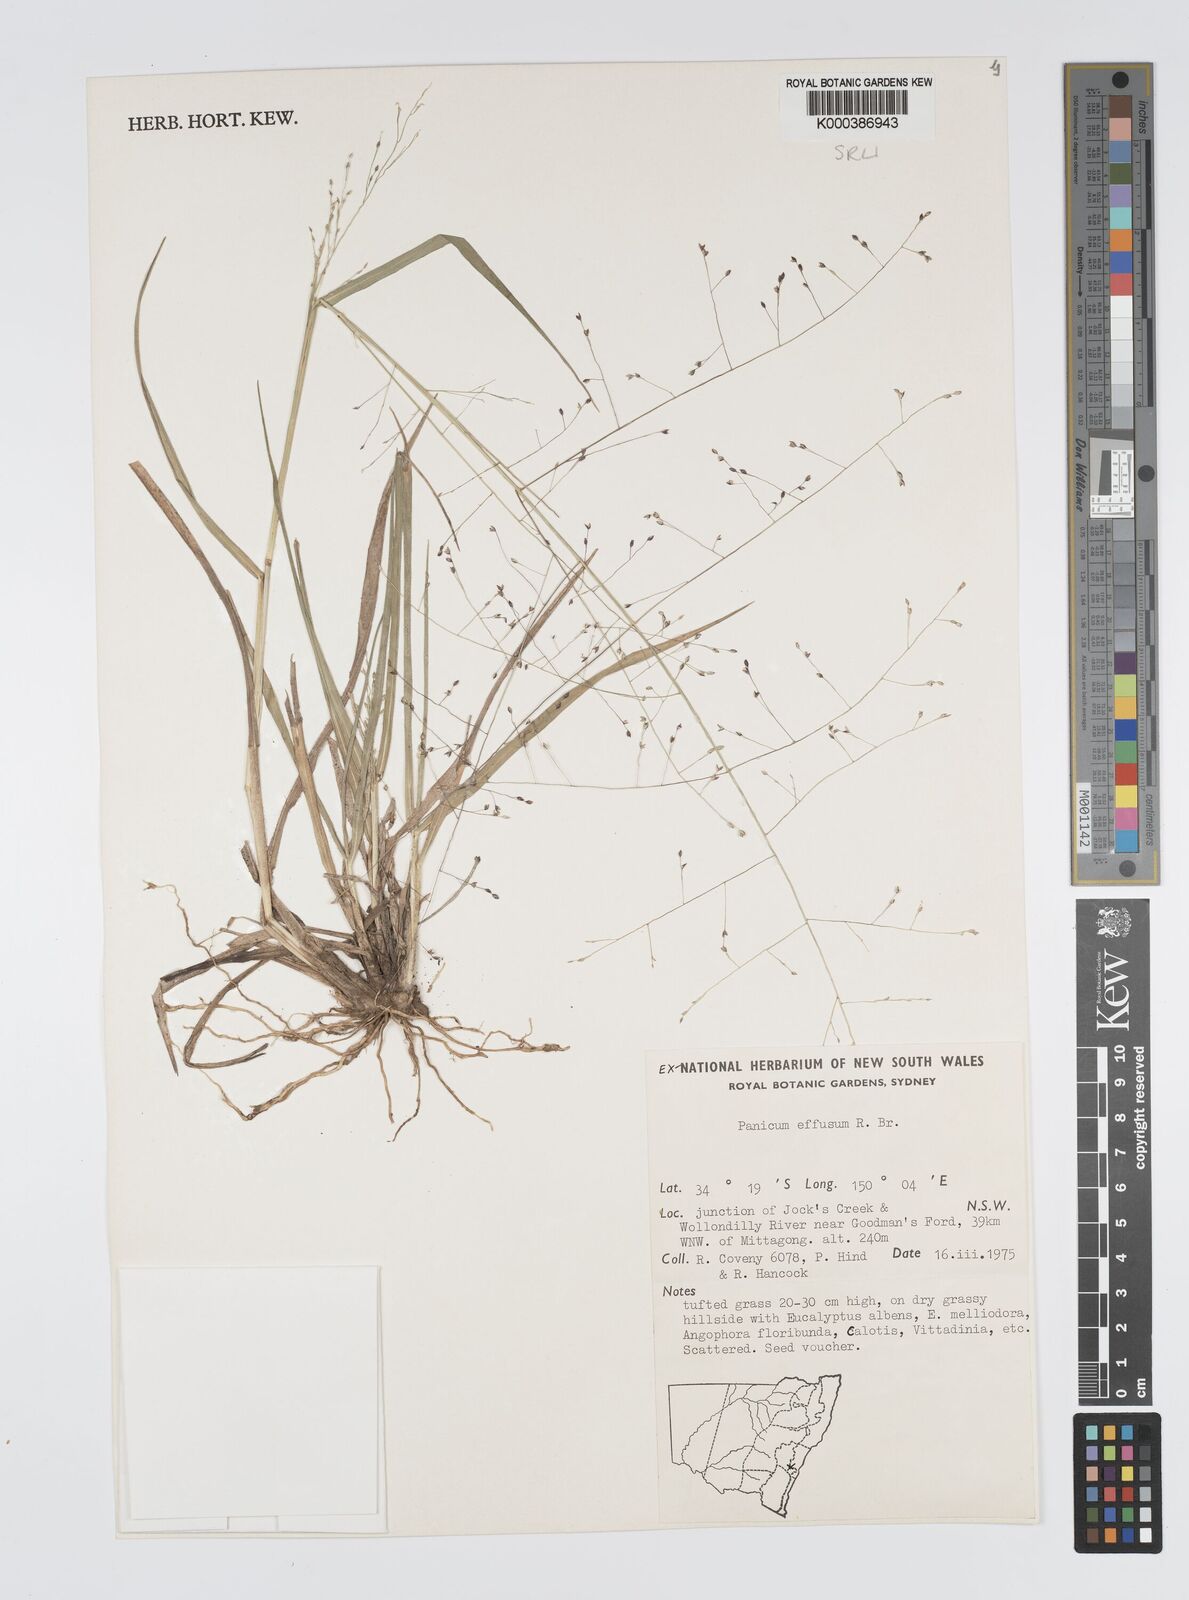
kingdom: Plantae
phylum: Tracheophyta
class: Liliopsida
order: Poales
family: Poaceae
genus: Panicum
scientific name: Panicum effusum
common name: Hairy panic grass
